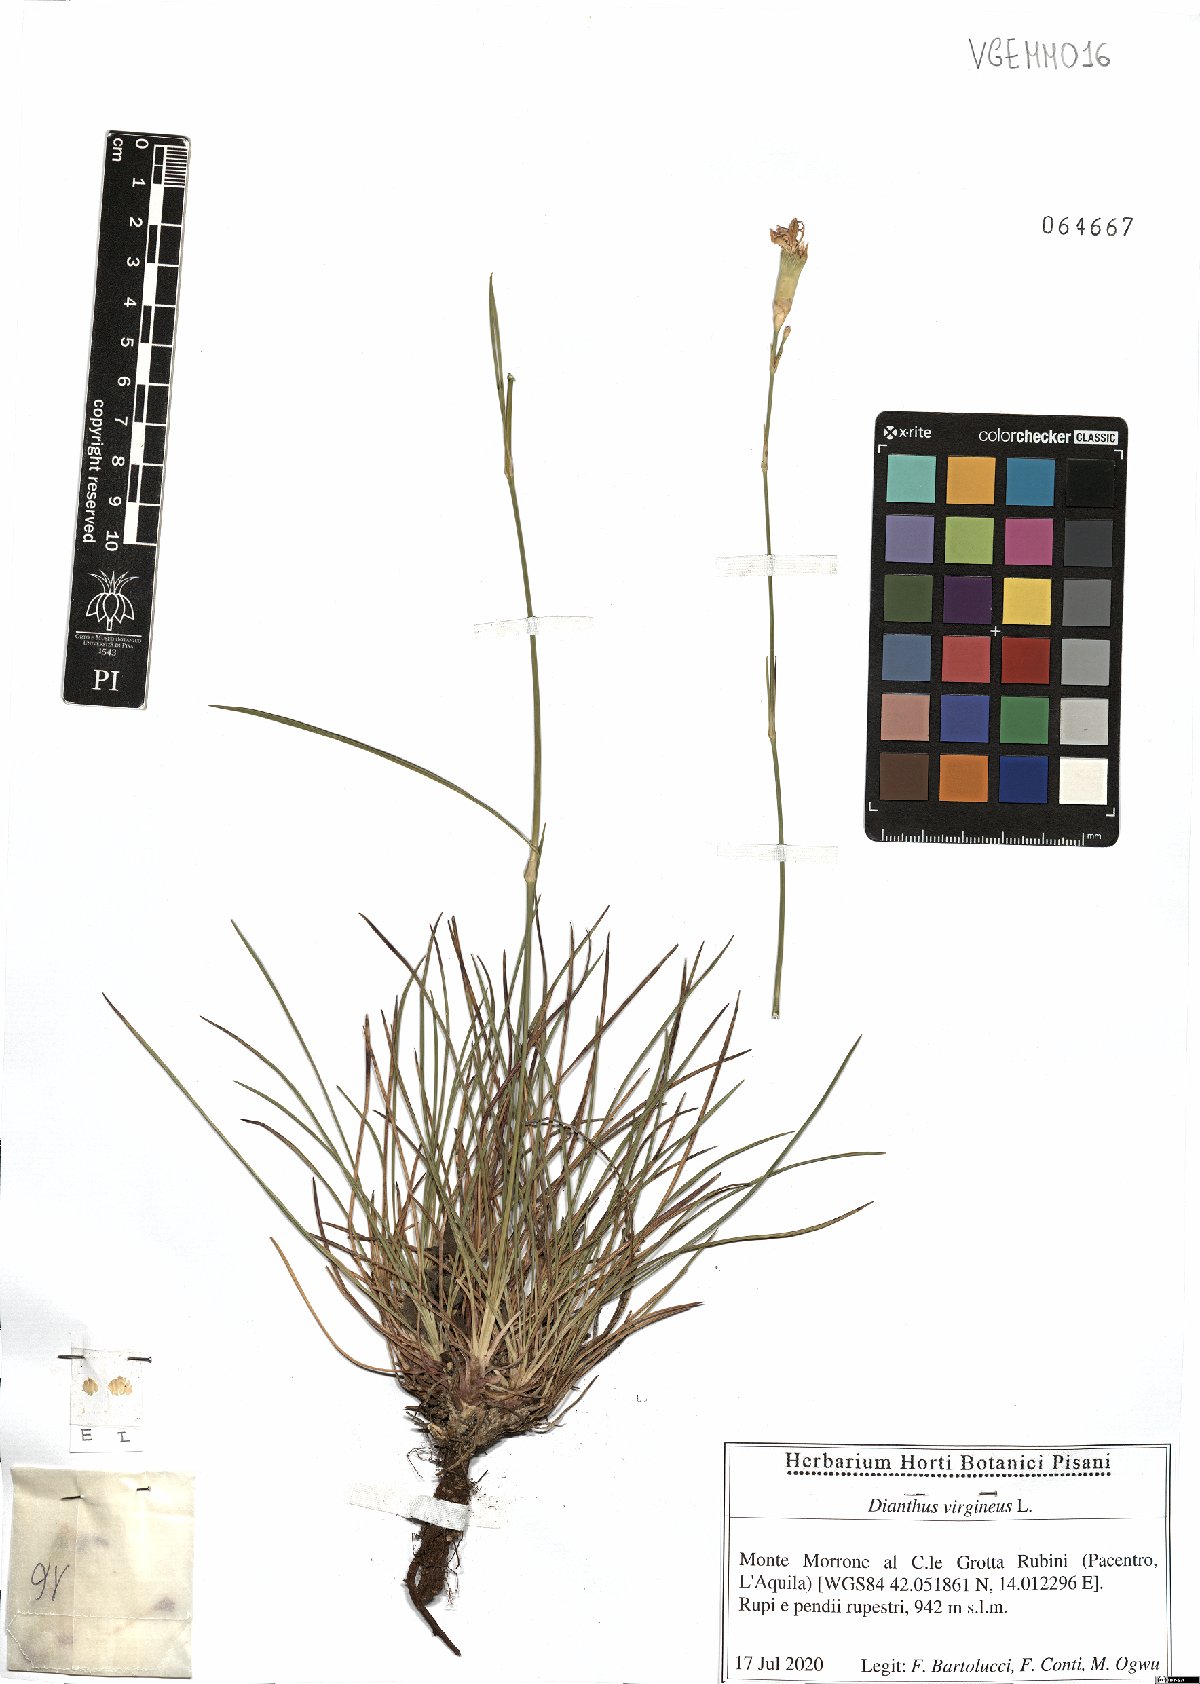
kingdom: Plantae
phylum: Tracheophyta
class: Magnoliopsida
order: Caryophyllales
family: Caryophyllaceae
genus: Dianthus
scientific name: Dianthus virgineus
